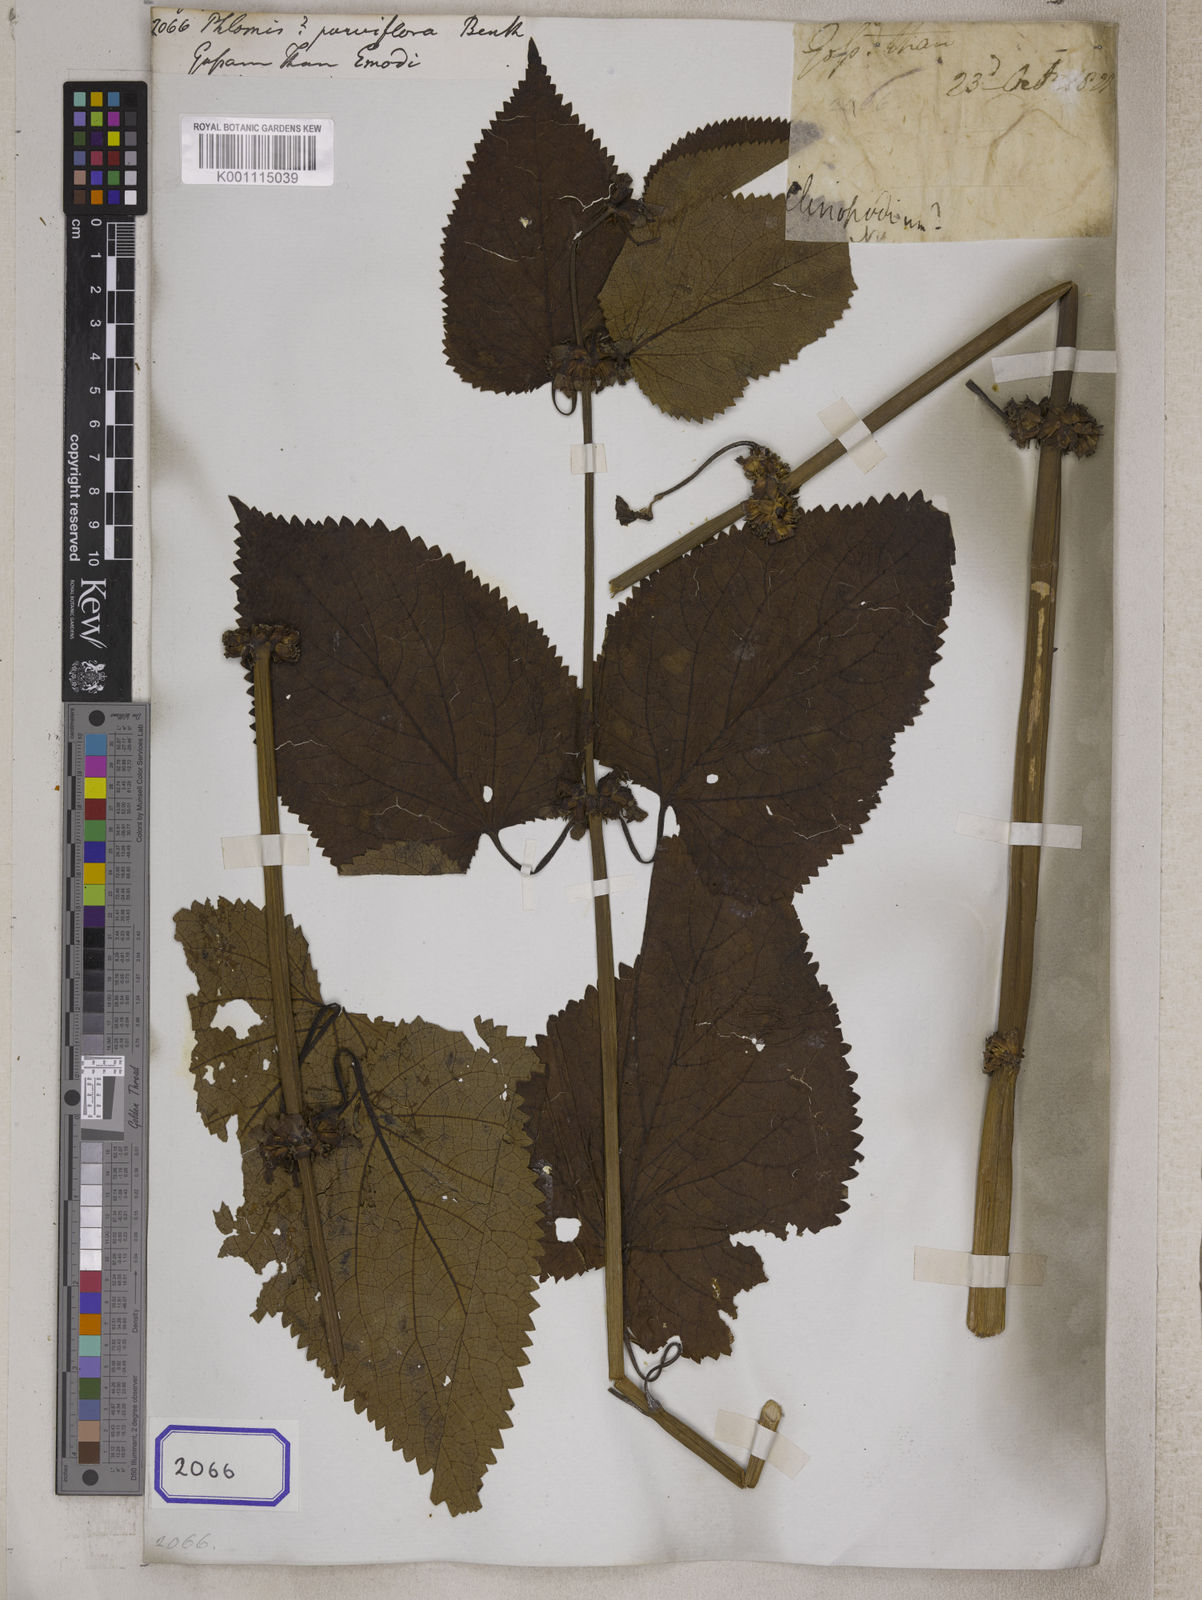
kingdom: Plantae
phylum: Tracheophyta
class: Magnoliopsida
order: Lamiales
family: Lamiaceae
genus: Phlomis
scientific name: Phlomis
